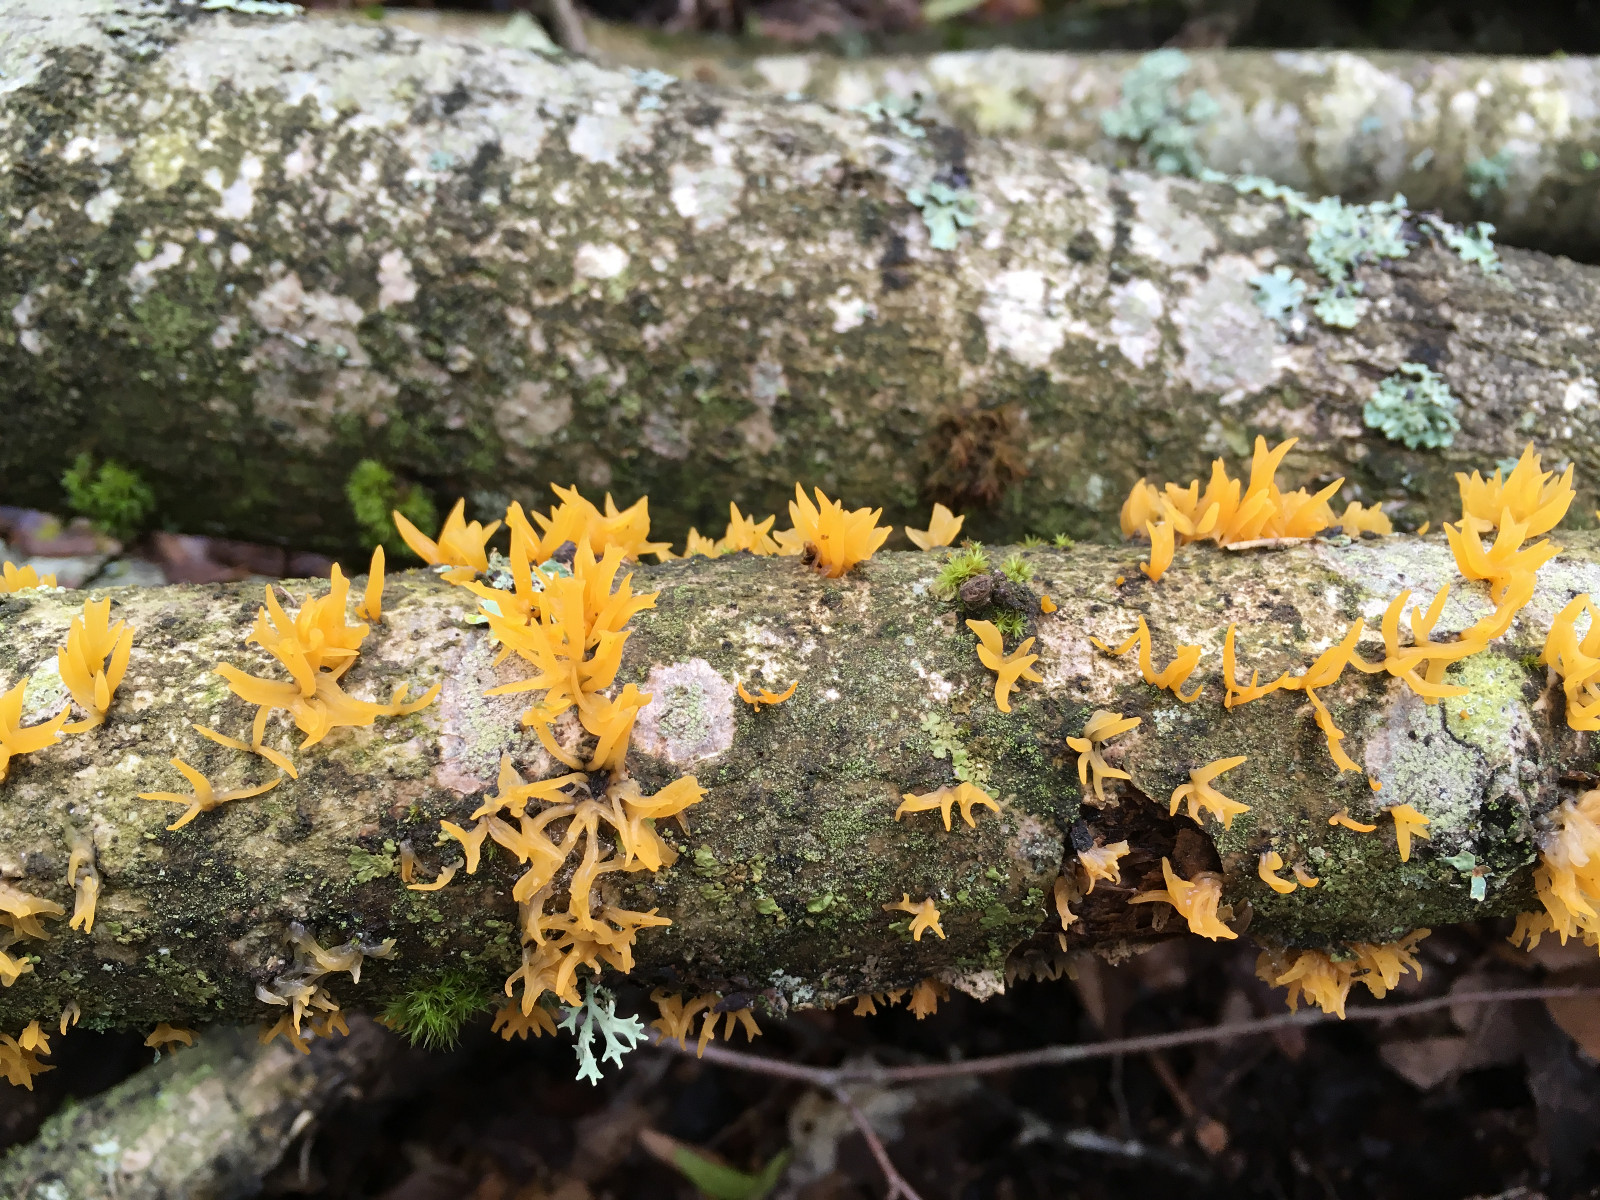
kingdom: Fungi
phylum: Basidiomycota
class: Dacrymycetes
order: Dacrymycetales
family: Dacrymycetaceae
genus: Calocera
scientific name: Calocera cornea
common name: liden guldgaffel
